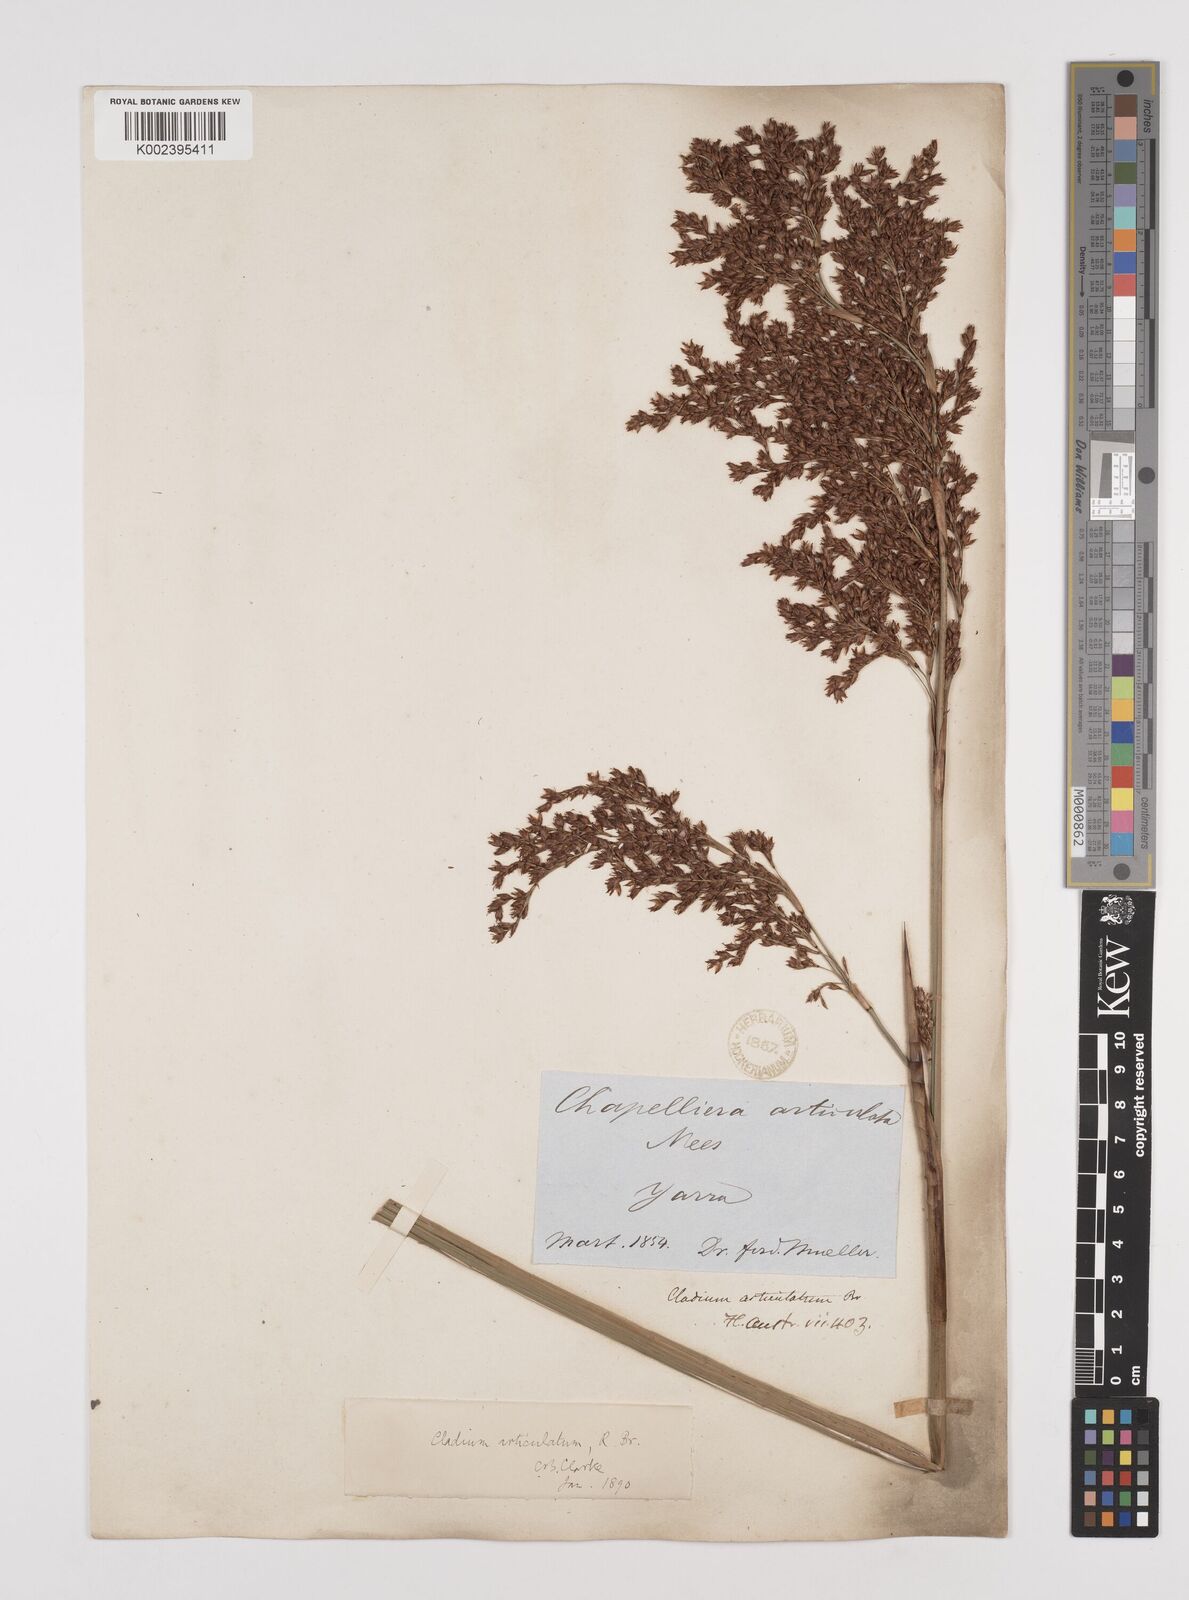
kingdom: Plantae
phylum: Tracheophyta
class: Liliopsida
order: Poales
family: Cyperaceae
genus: Machaerina
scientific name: Machaerina articulata
